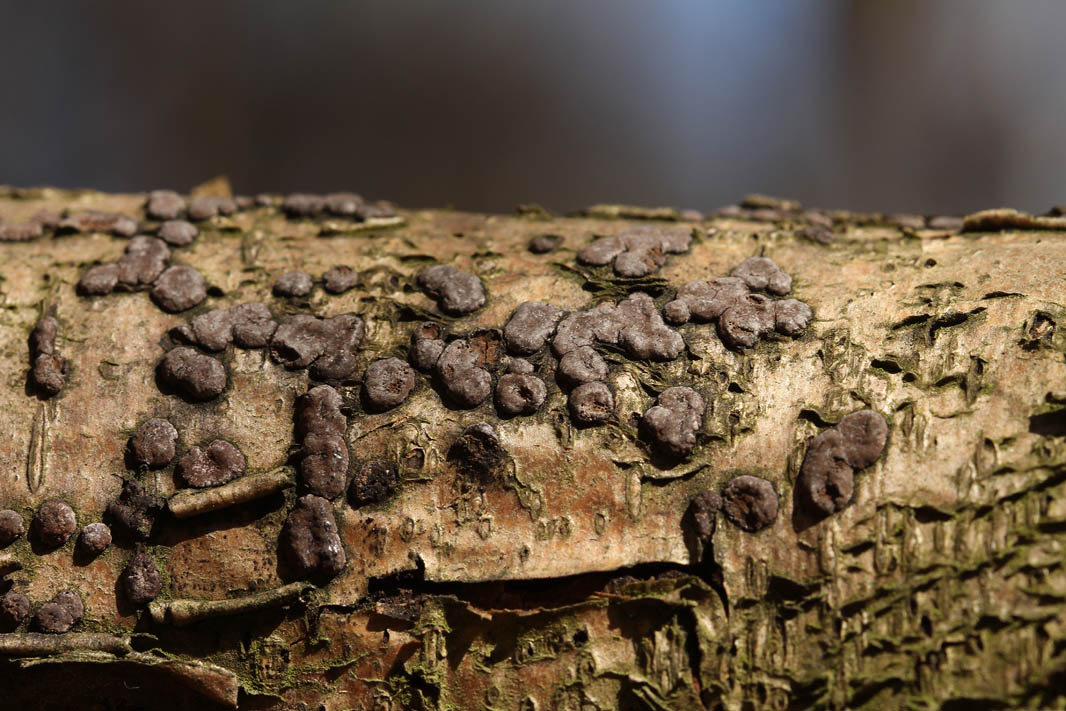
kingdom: Fungi
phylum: Ascomycota
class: Sordariomycetes
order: Xylariales
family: Hypoxylaceae
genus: Hypoxylon
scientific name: Hypoxylon fuscum
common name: kegleformet kulbær
